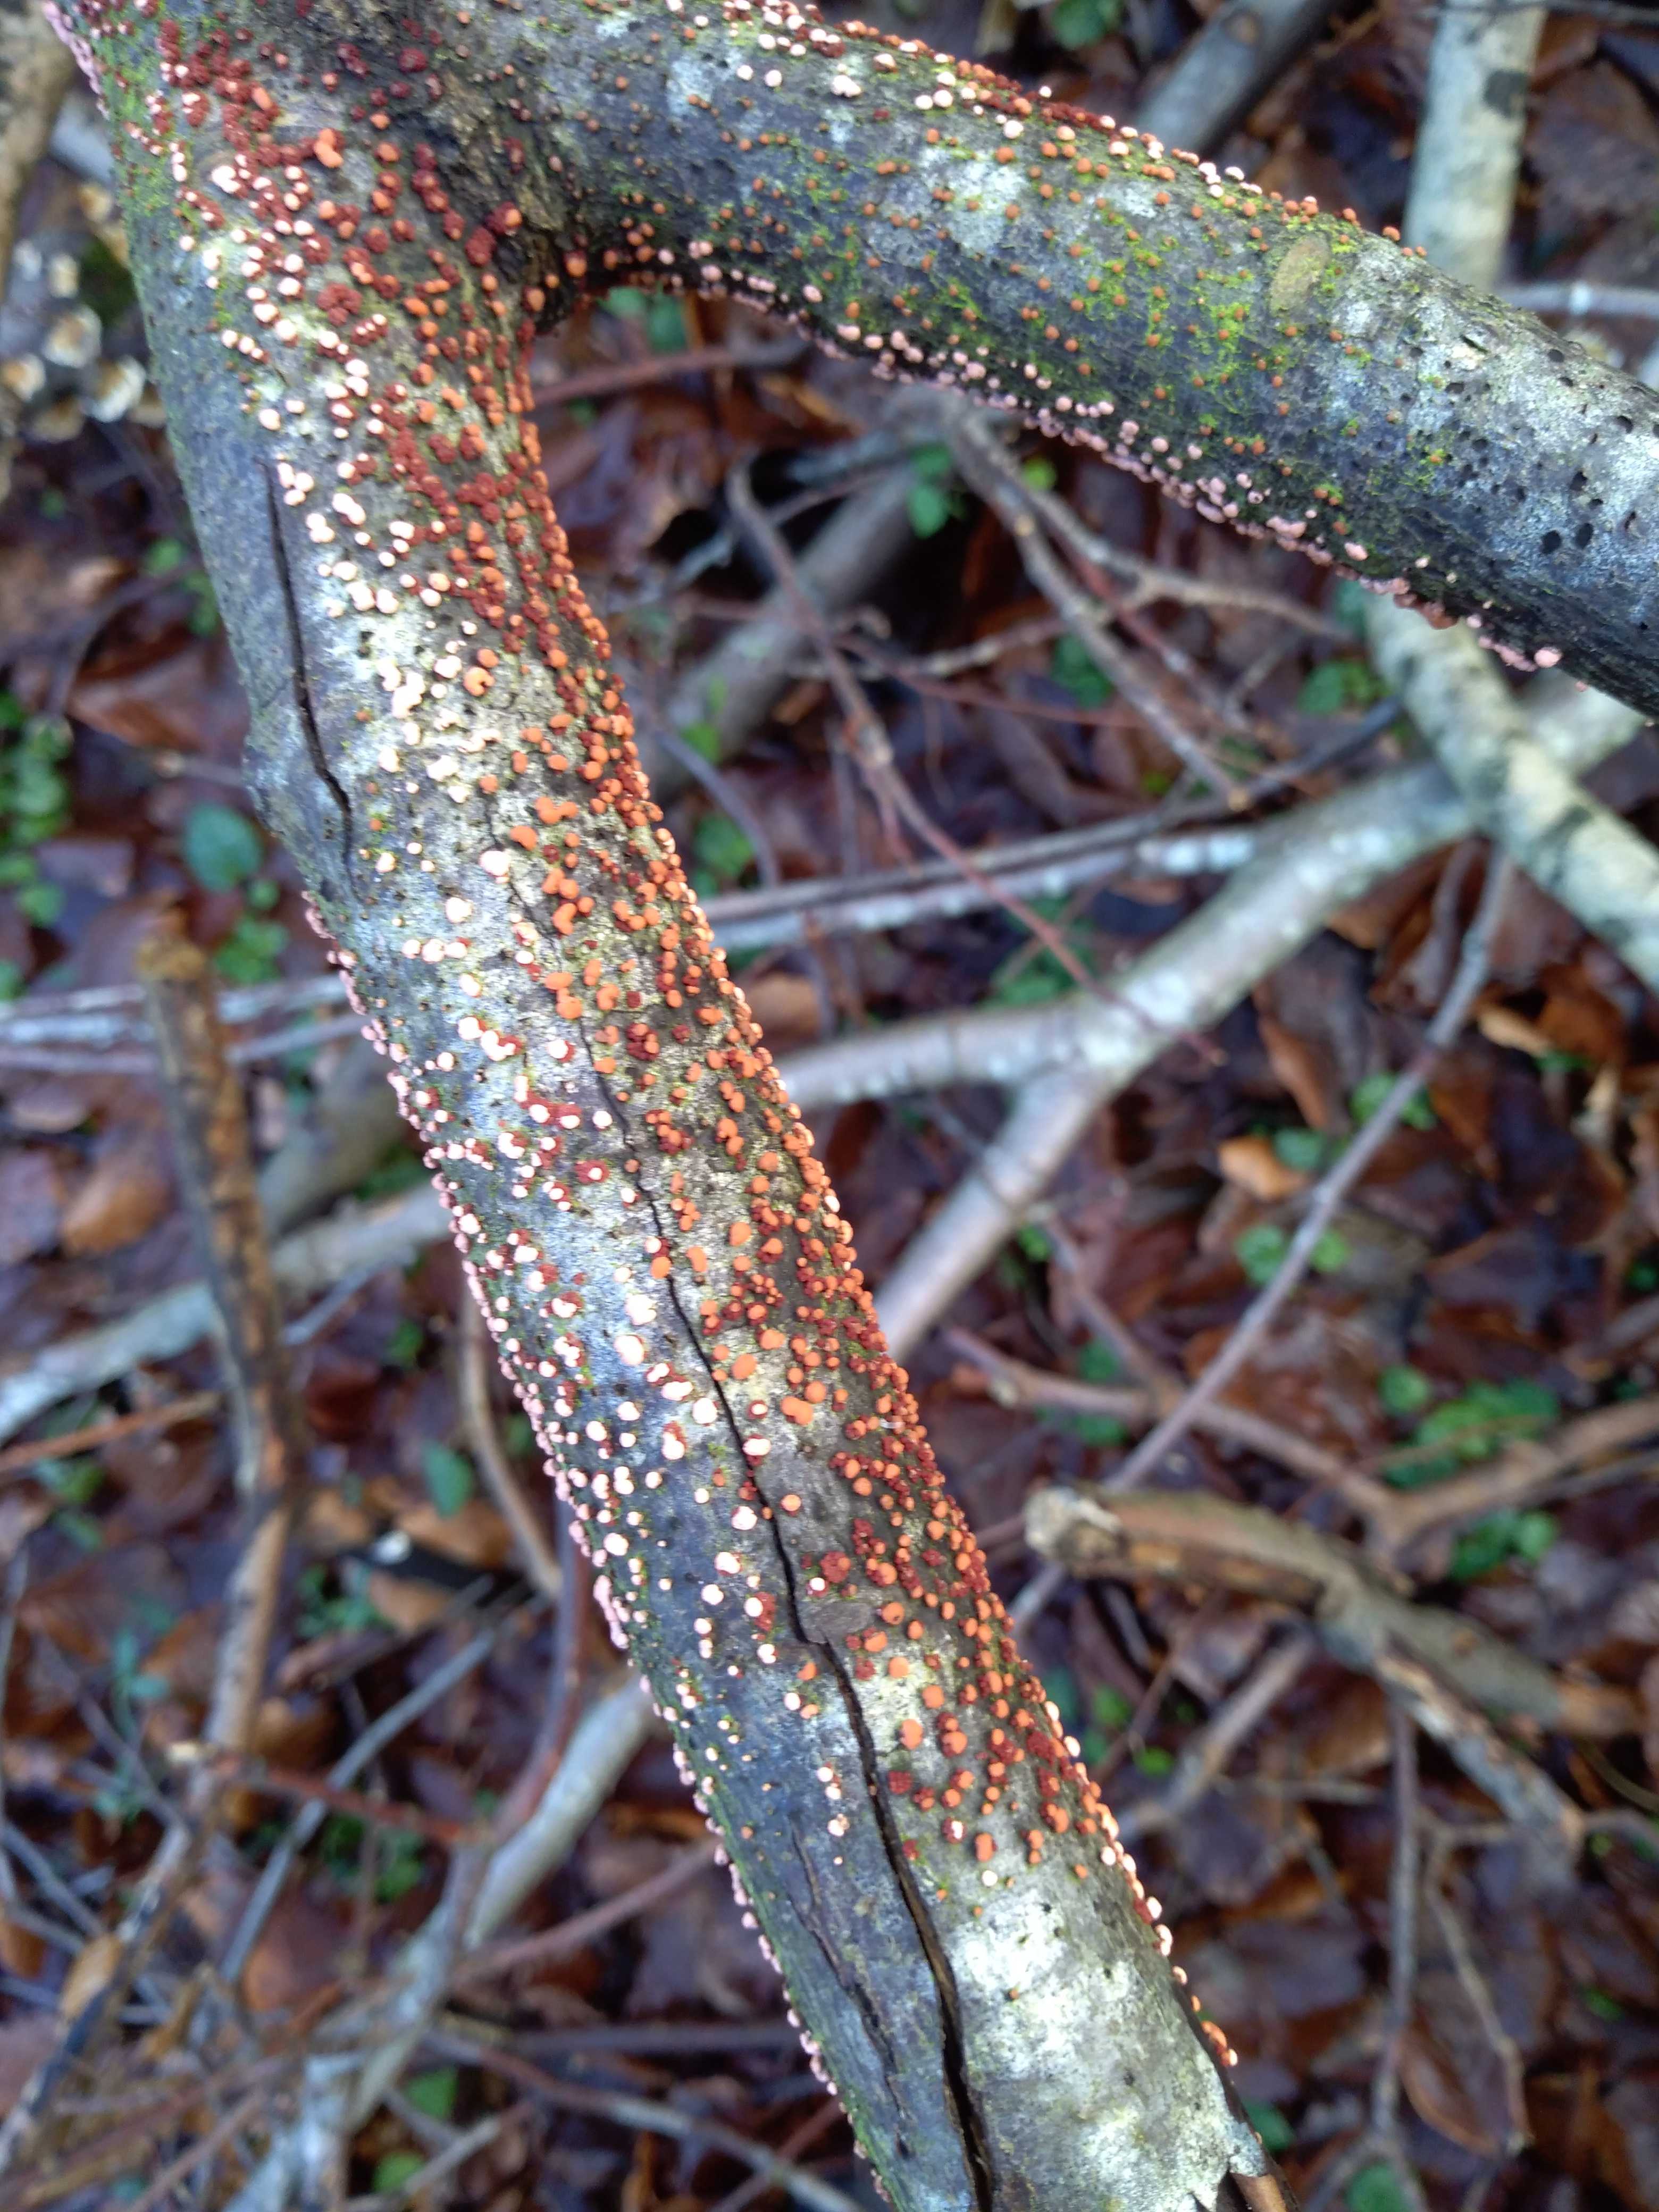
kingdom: Fungi
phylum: Ascomycota
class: Sordariomycetes
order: Hypocreales
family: Nectriaceae
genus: Nectria
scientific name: Nectria cinnabarina
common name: almindelig cinnobersvamp
